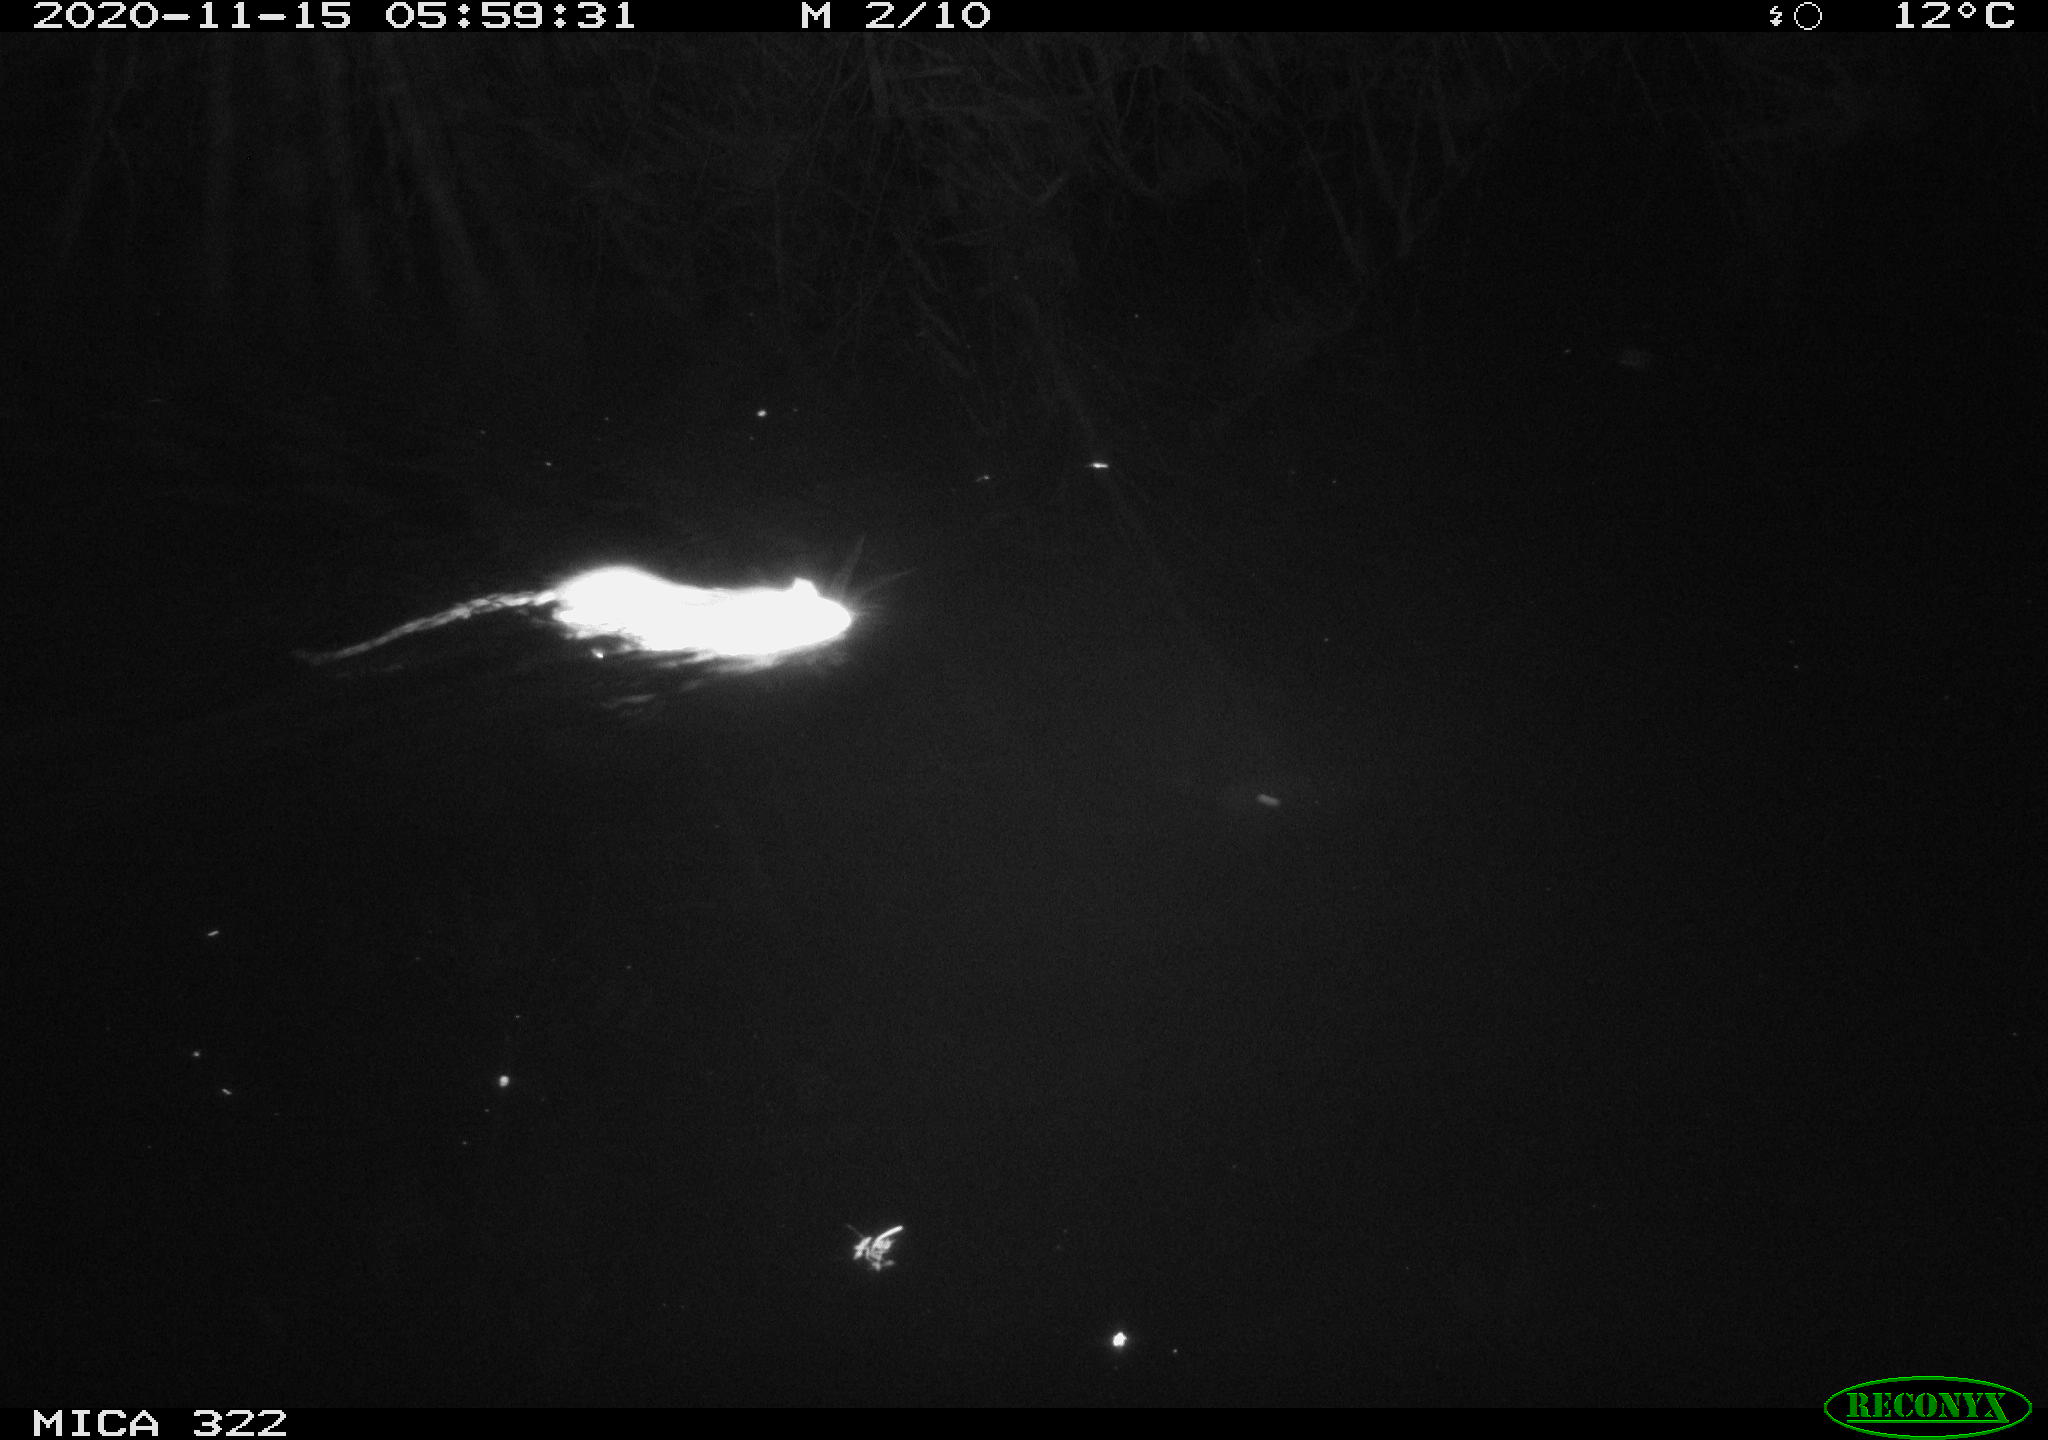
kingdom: Animalia
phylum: Chordata
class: Mammalia
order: Rodentia
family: Muridae
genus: Rattus
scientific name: Rattus norvegicus
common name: Brown rat
